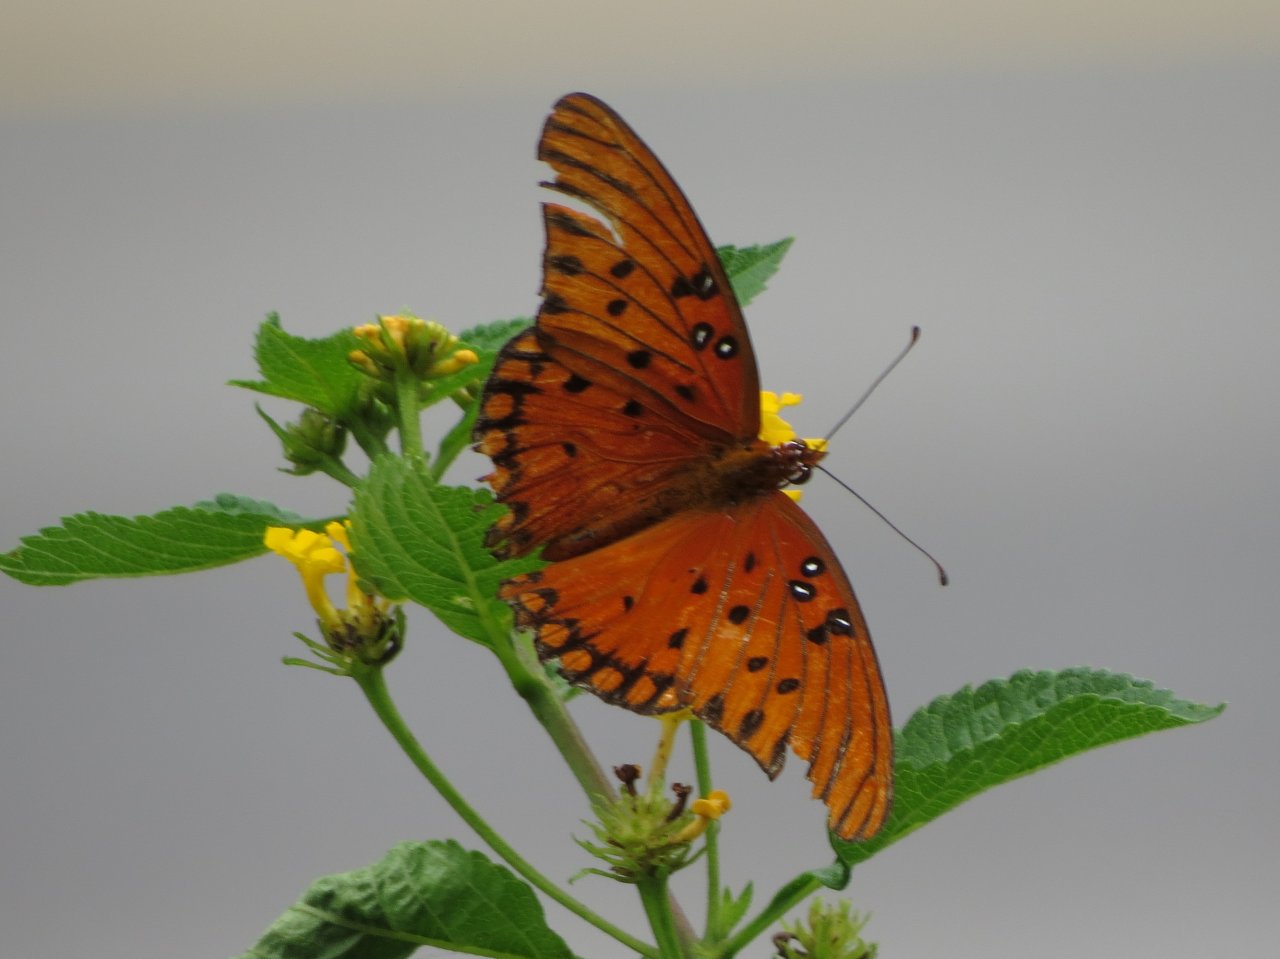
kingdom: Animalia
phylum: Arthropoda
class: Insecta
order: Lepidoptera
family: Nymphalidae
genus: Dione
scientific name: Dione vanillae
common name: Gulf Fritillary
